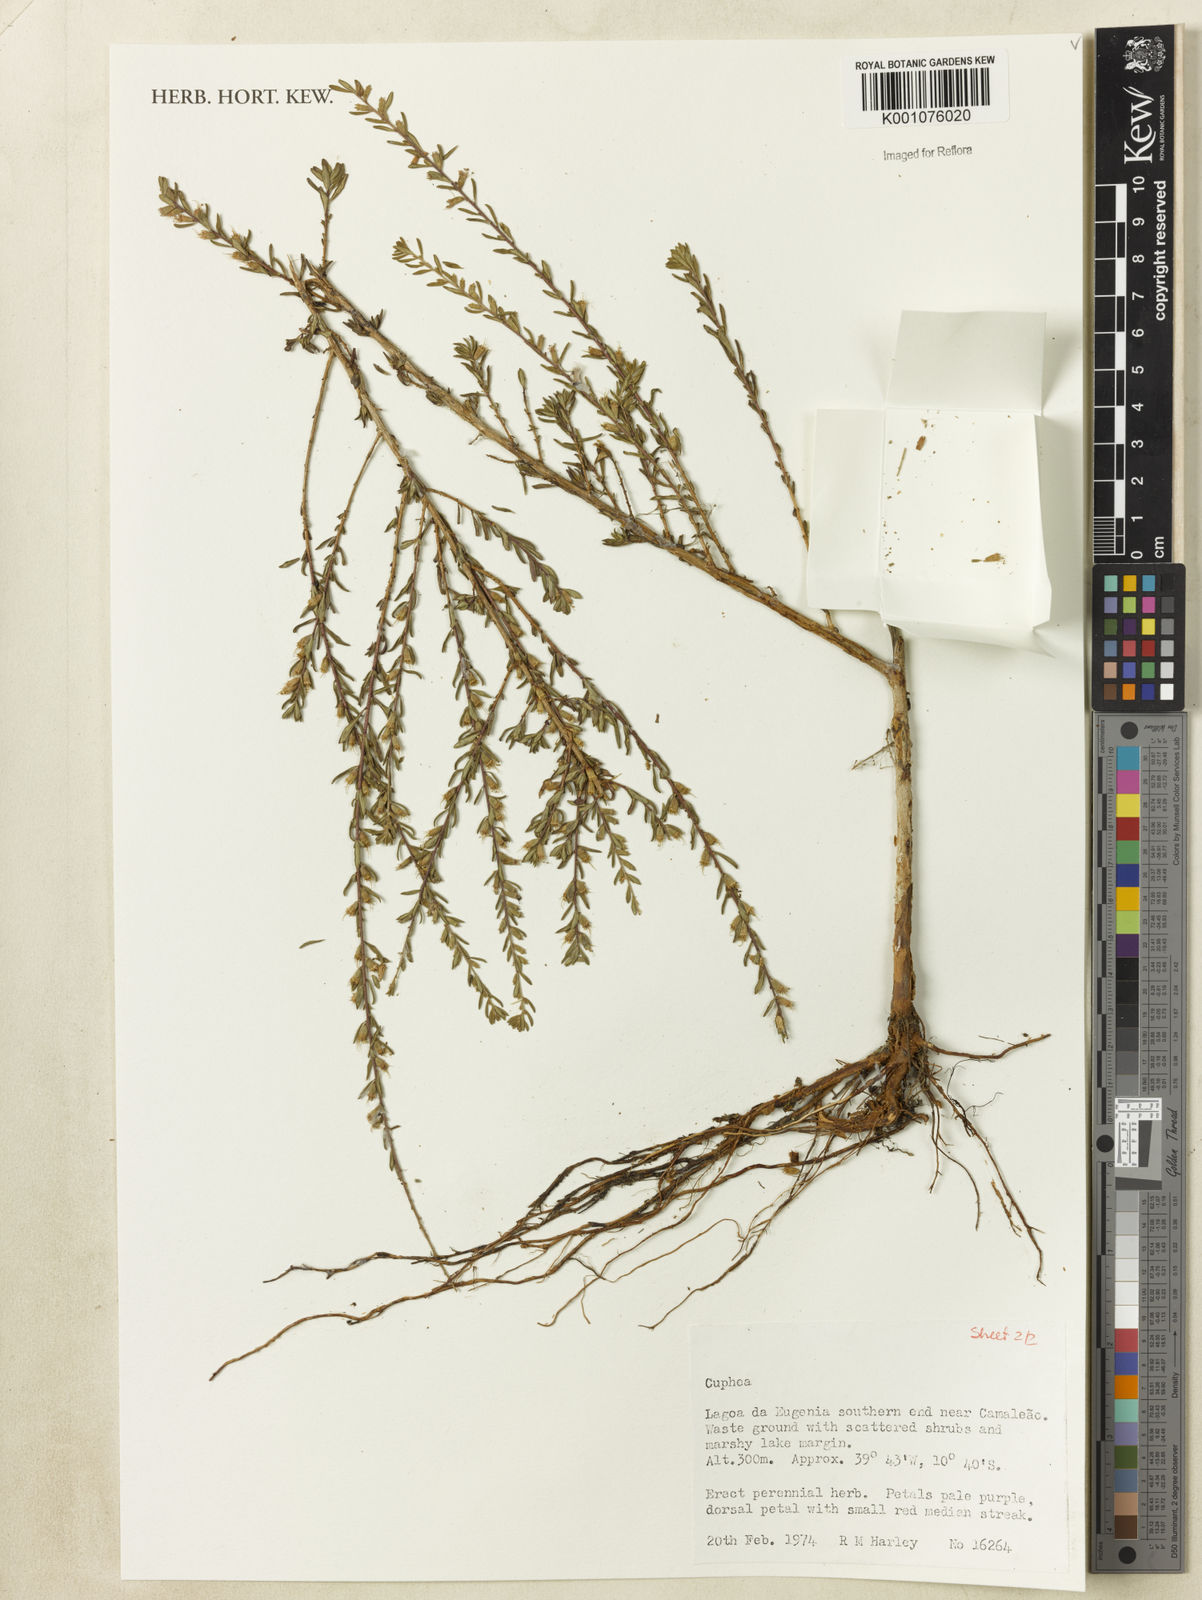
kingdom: Plantae
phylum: Tracheophyta
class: Magnoliopsida
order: Myrtales
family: Lythraceae
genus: Cuphea
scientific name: Cuphea
